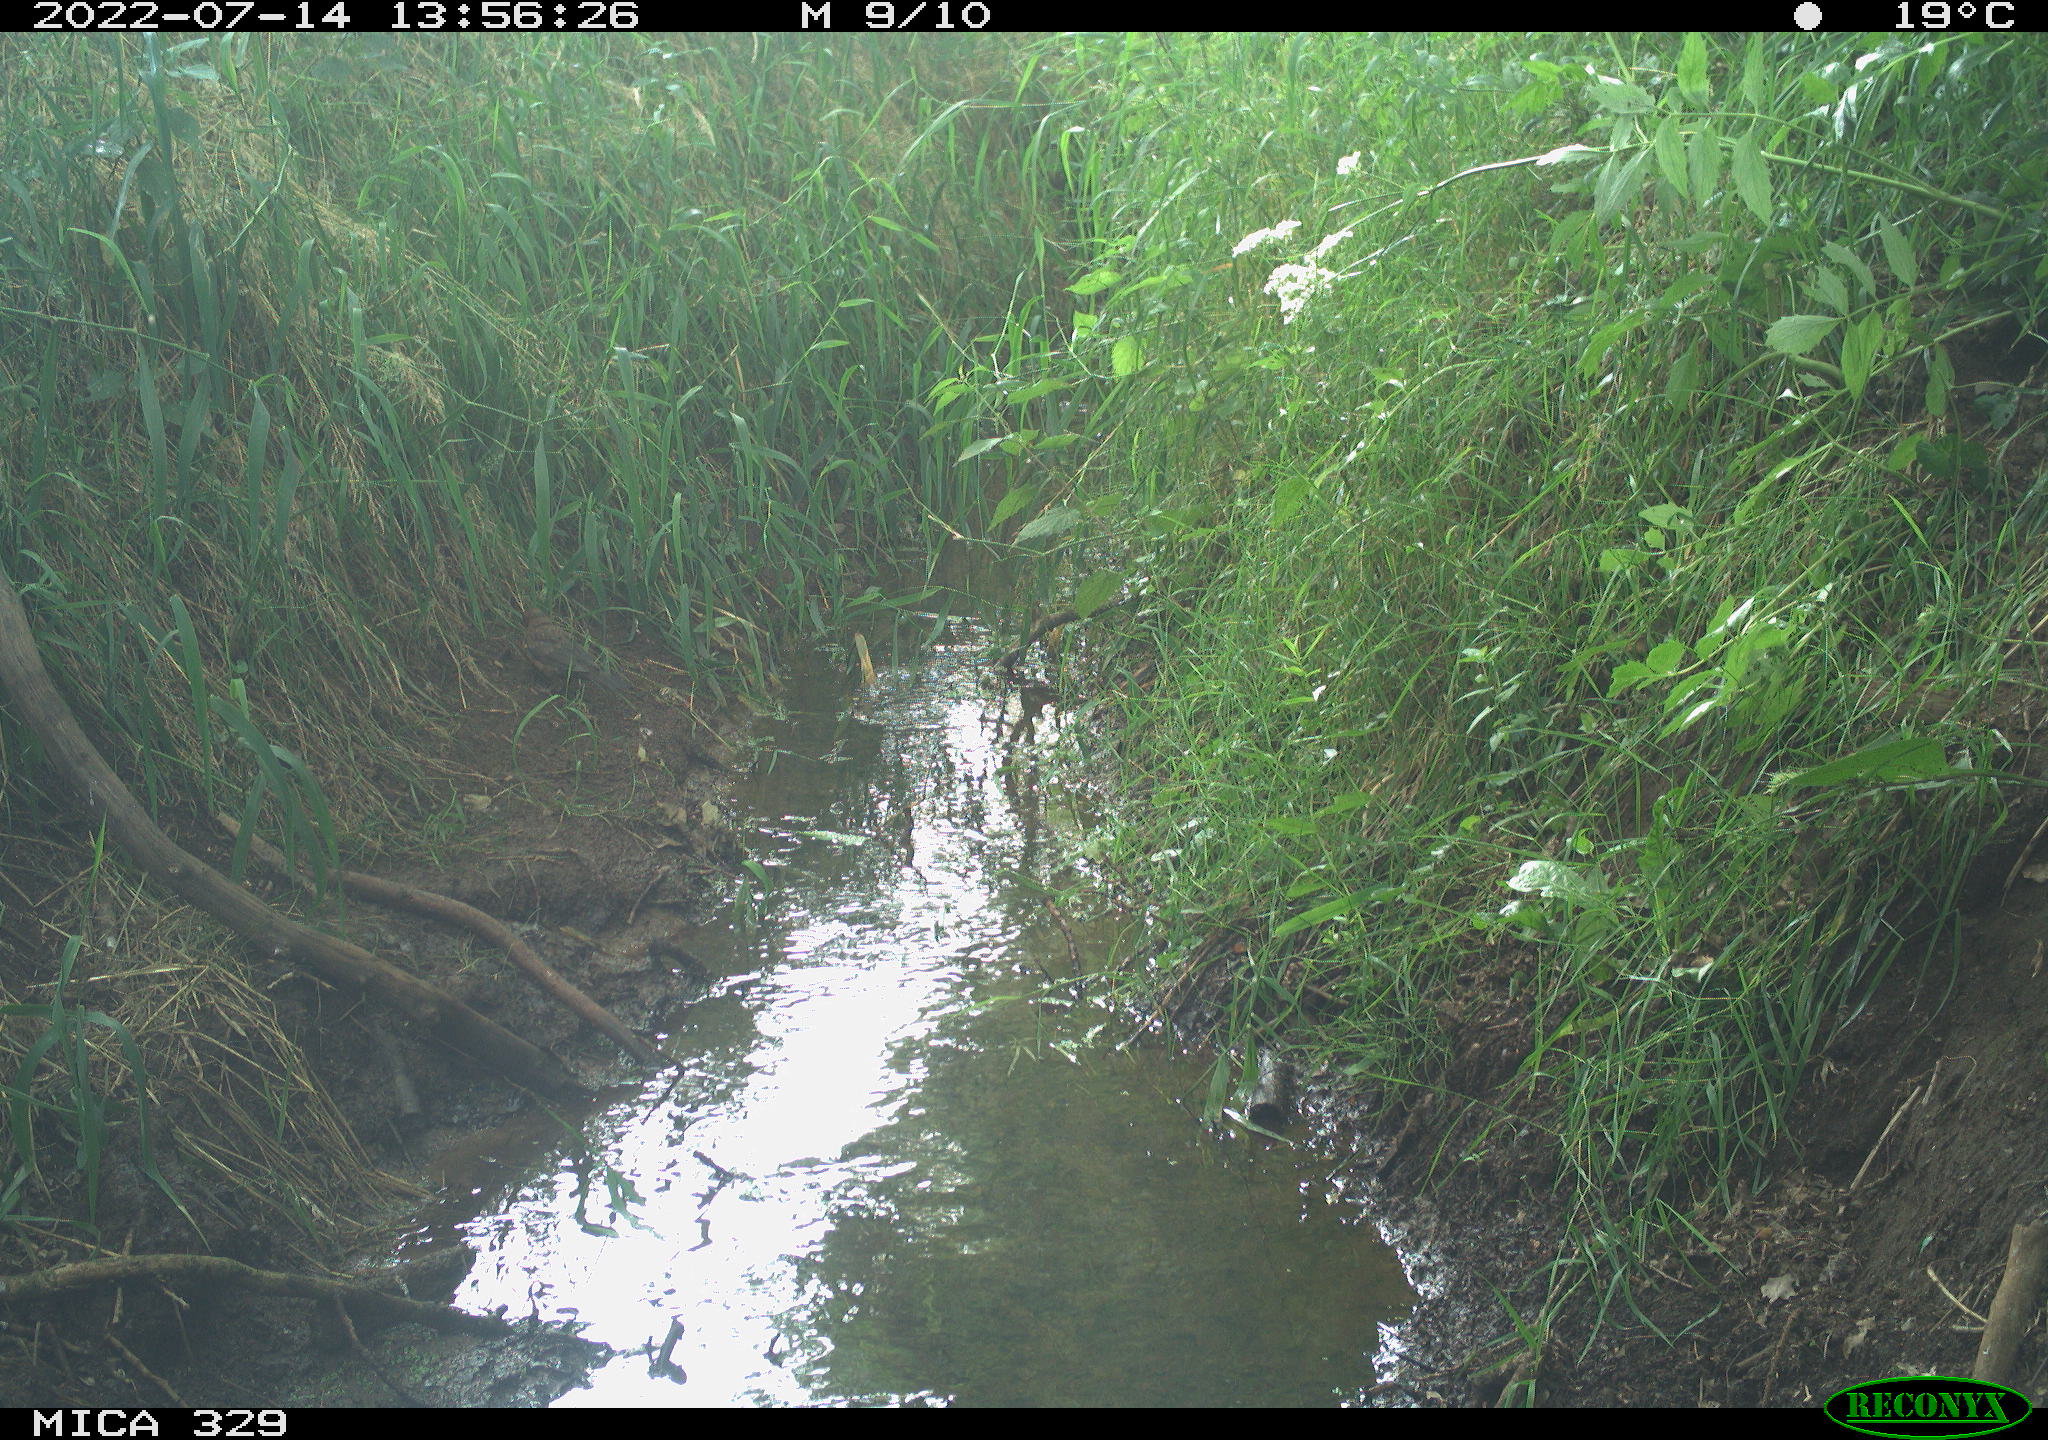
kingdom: Animalia
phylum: Chordata
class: Aves
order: Passeriformes
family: Turdidae
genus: Turdus
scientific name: Turdus merula
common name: Common blackbird
